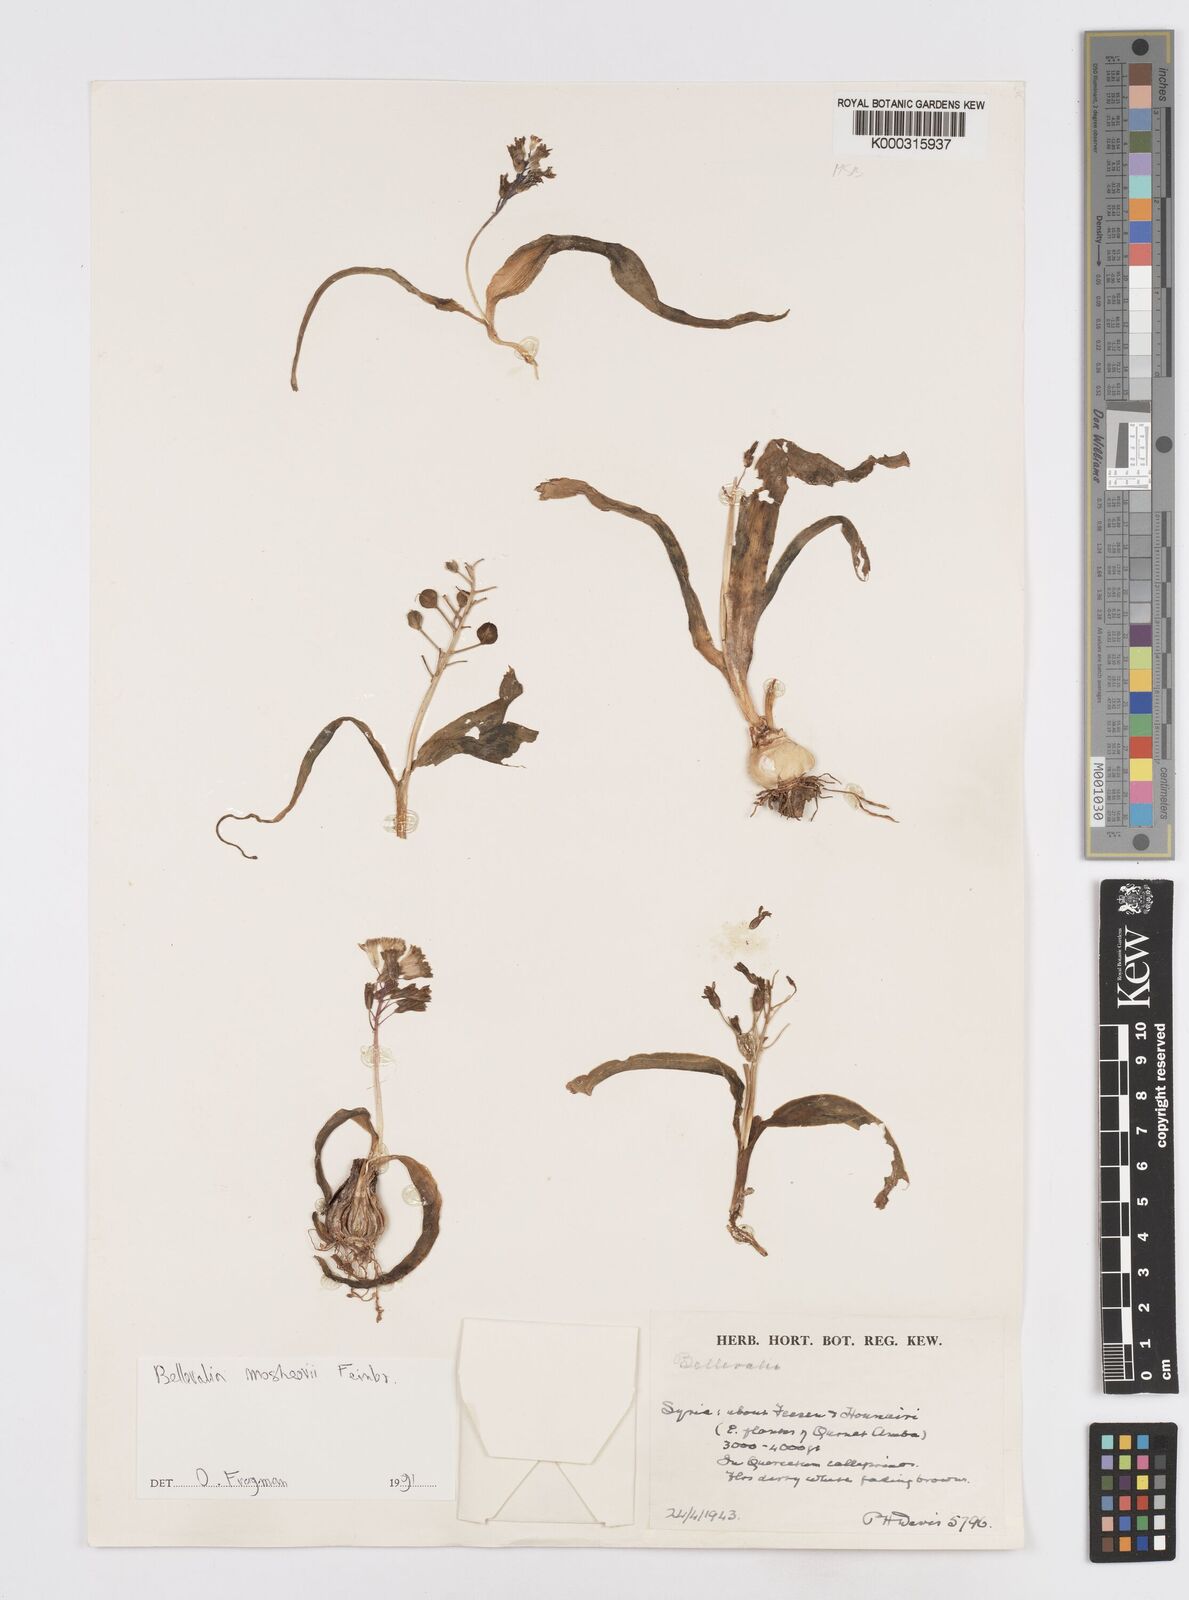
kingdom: Plantae
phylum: Tracheophyta
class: Liliopsida
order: Asparagales
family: Asparagaceae
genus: Bellevalia
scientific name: Bellevalia mosheovii
